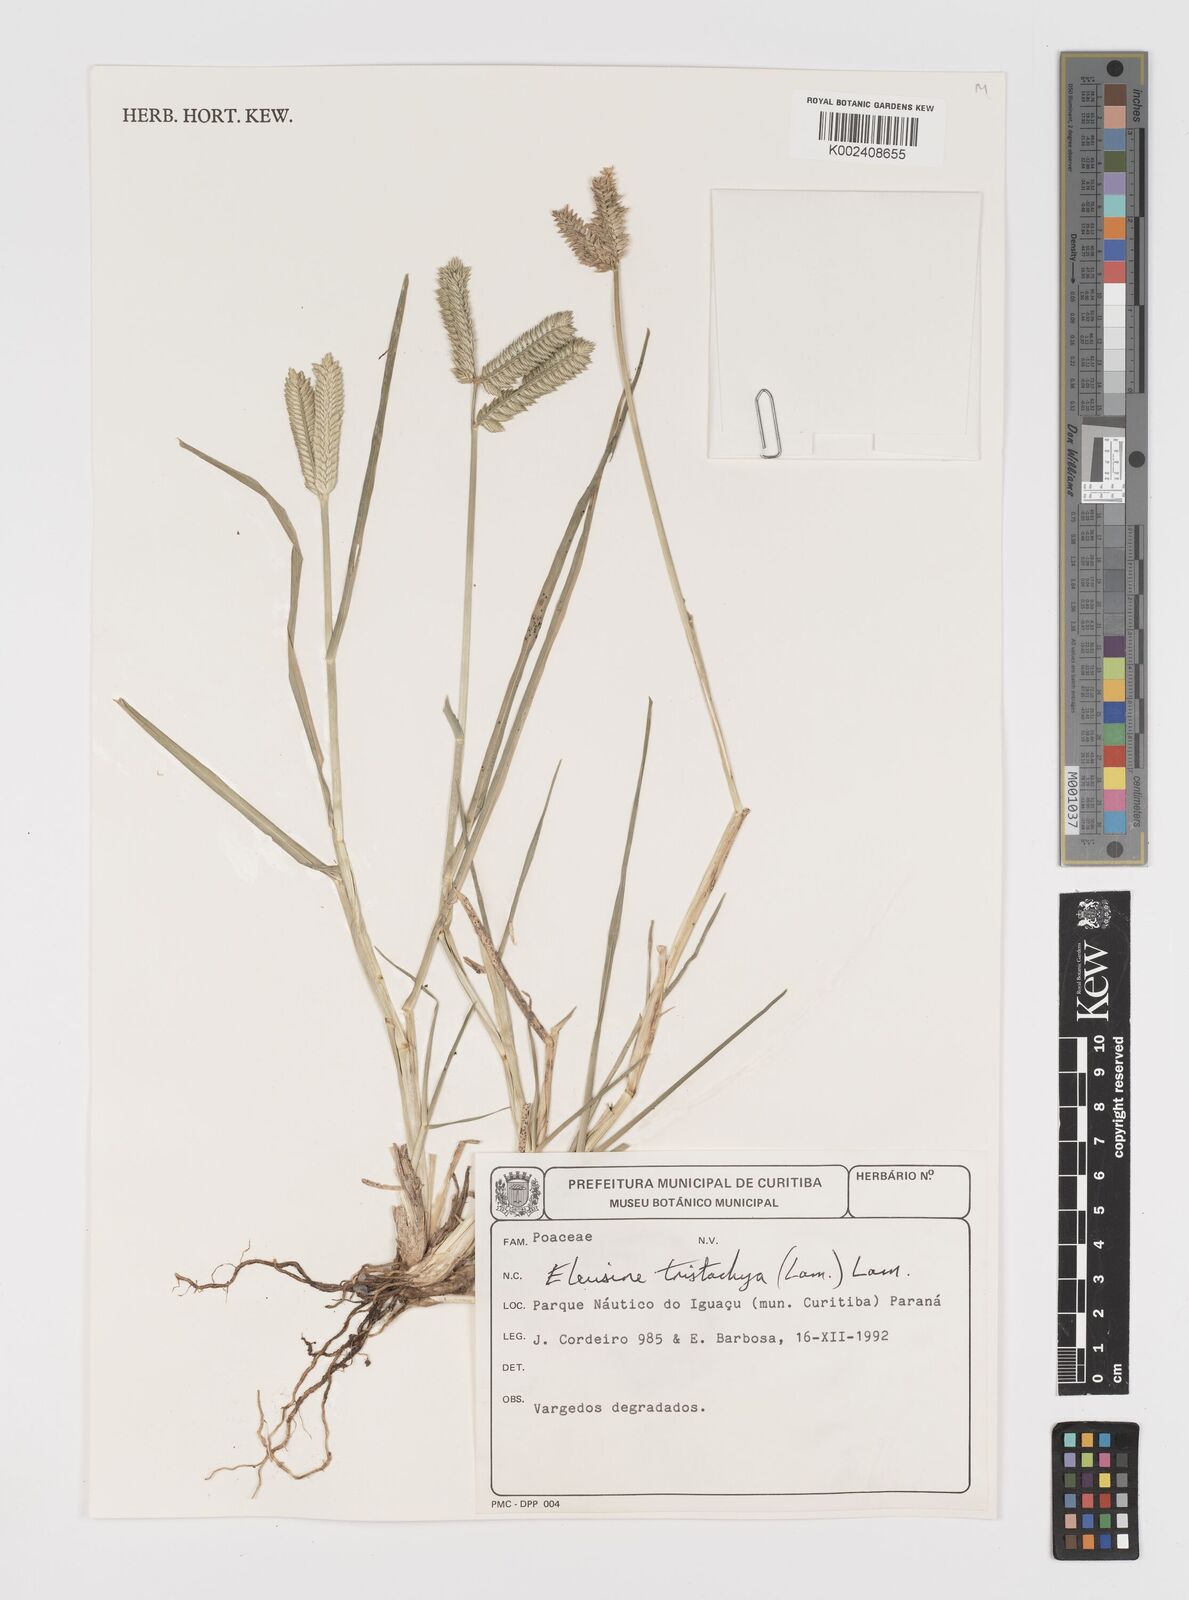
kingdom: Plantae
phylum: Tracheophyta
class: Liliopsida
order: Poales
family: Poaceae
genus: Eleusine
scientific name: Eleusine tristachya
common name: American yard-grass
